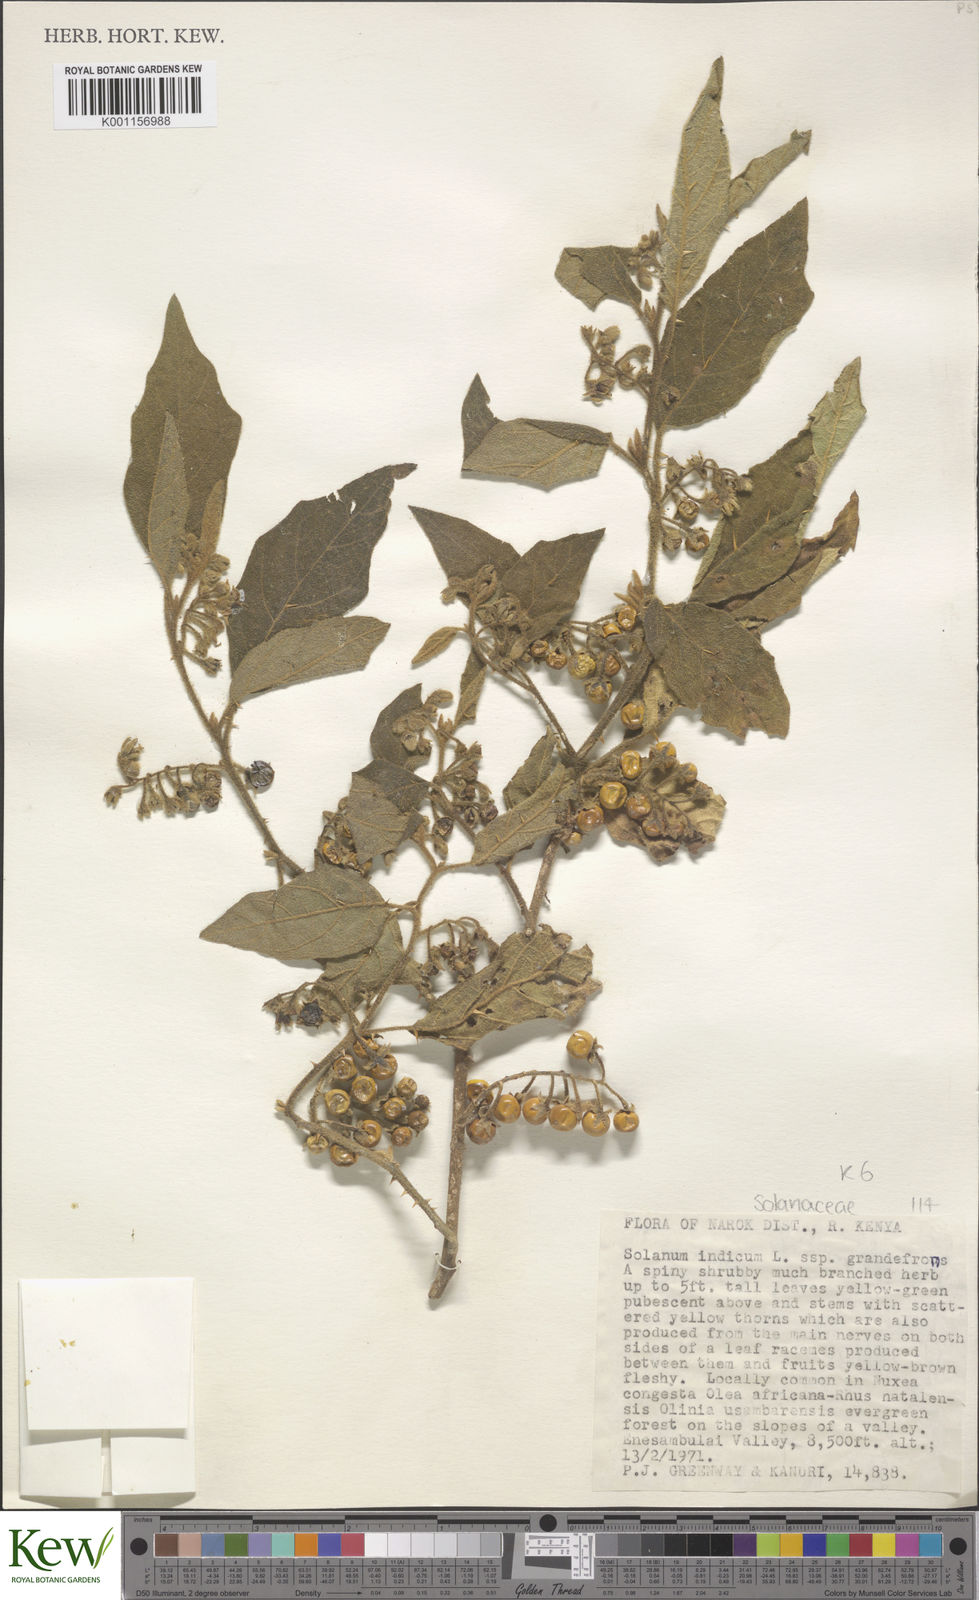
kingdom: Plantae
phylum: Tracheophyta
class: Magnoliopsida
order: Solanales
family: Solanaceae
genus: Solanum
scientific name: Solanum anguivi
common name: Forest bitterberry
